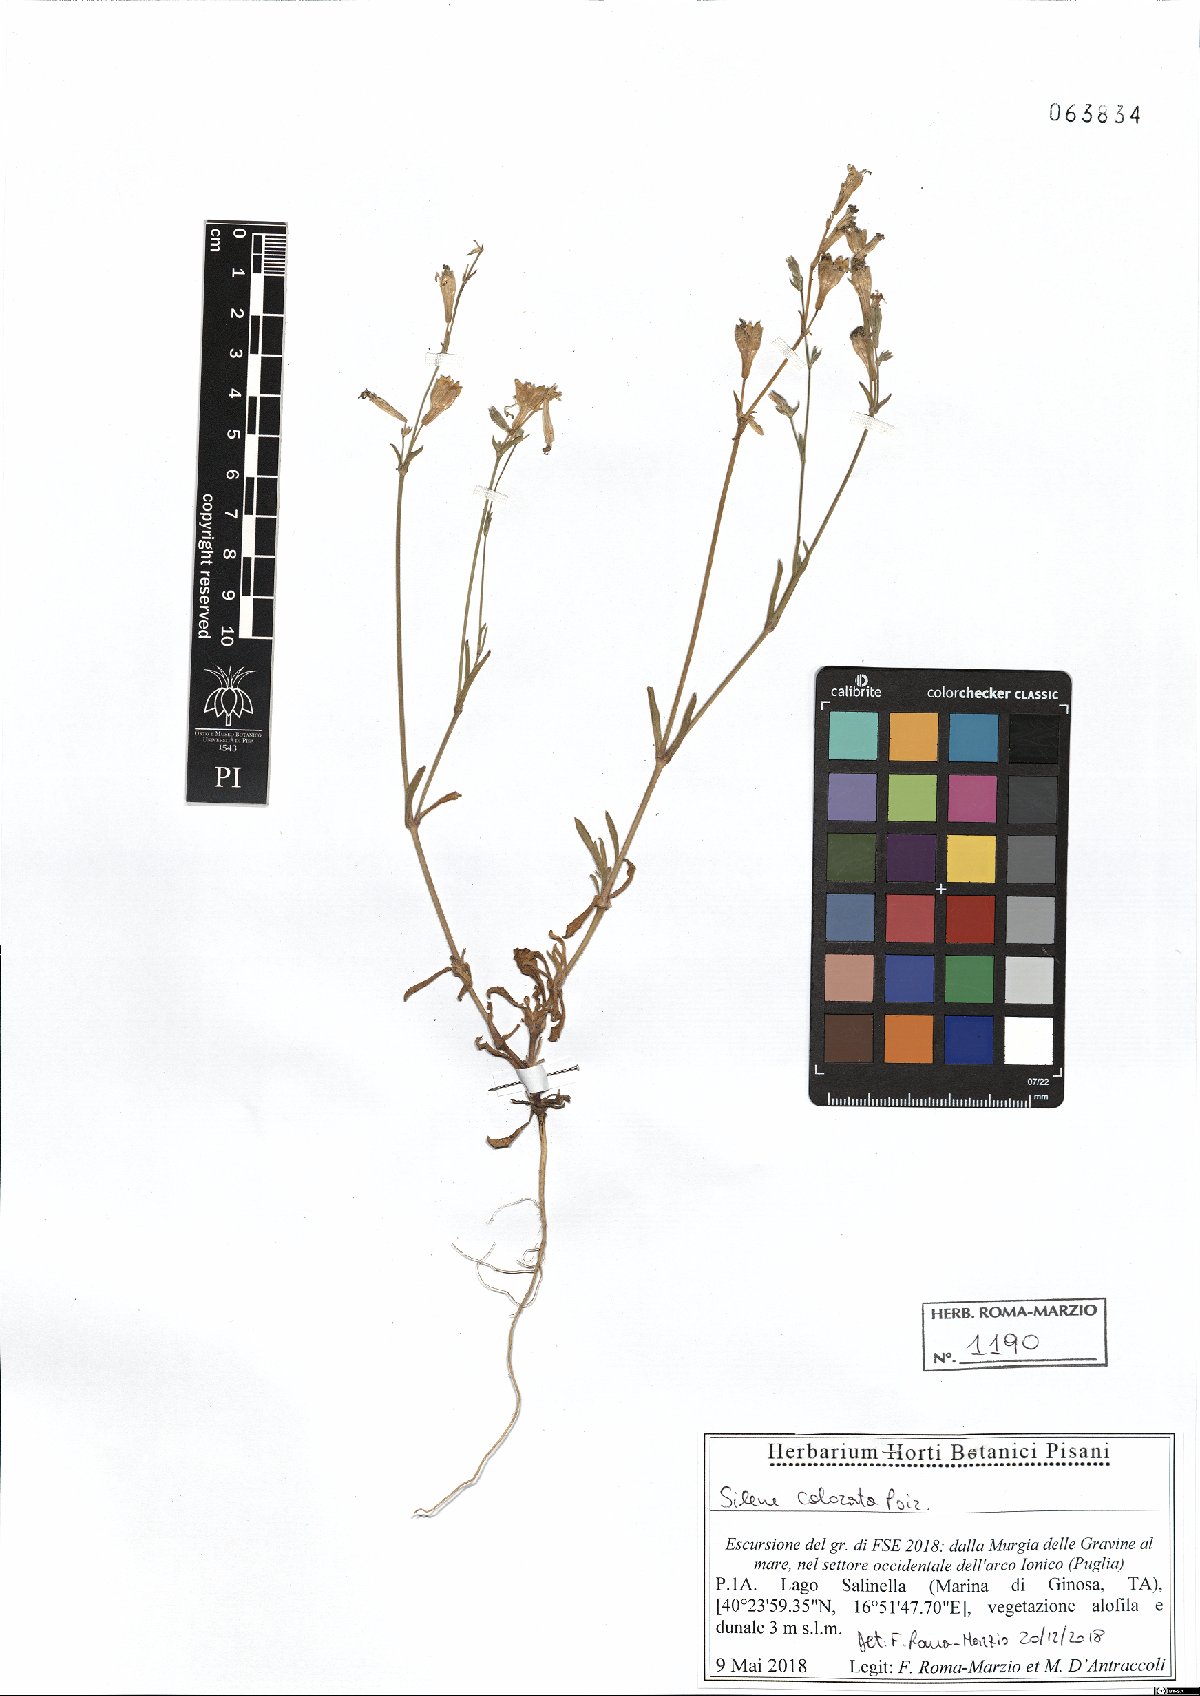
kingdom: Plantae
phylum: Tracheophyta
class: Magnoliopsida
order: Caryophyllales
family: Caryophyllaceae
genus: Silene
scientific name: Silene colorata
